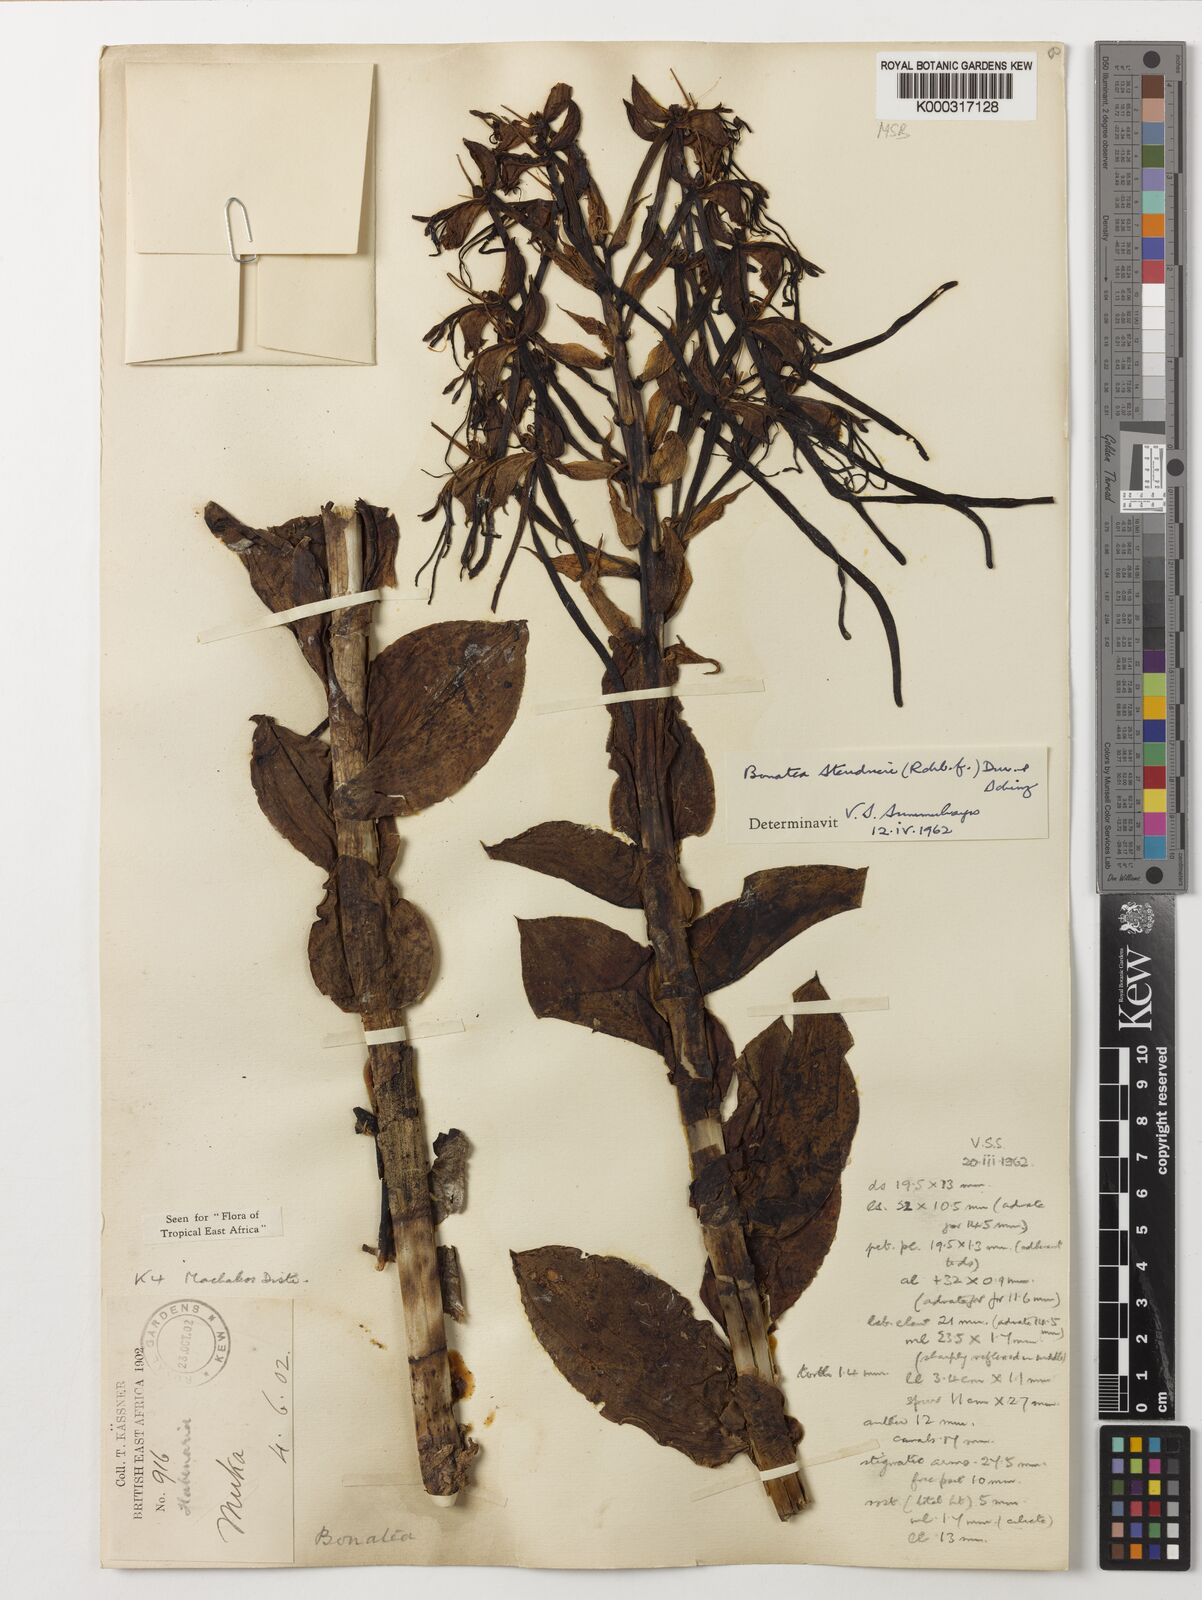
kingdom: Plantae
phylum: Tracheophyta
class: Liliopsida
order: Asparagales
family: Orchidaceae
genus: Bonatea
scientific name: Bonatea steudneri
